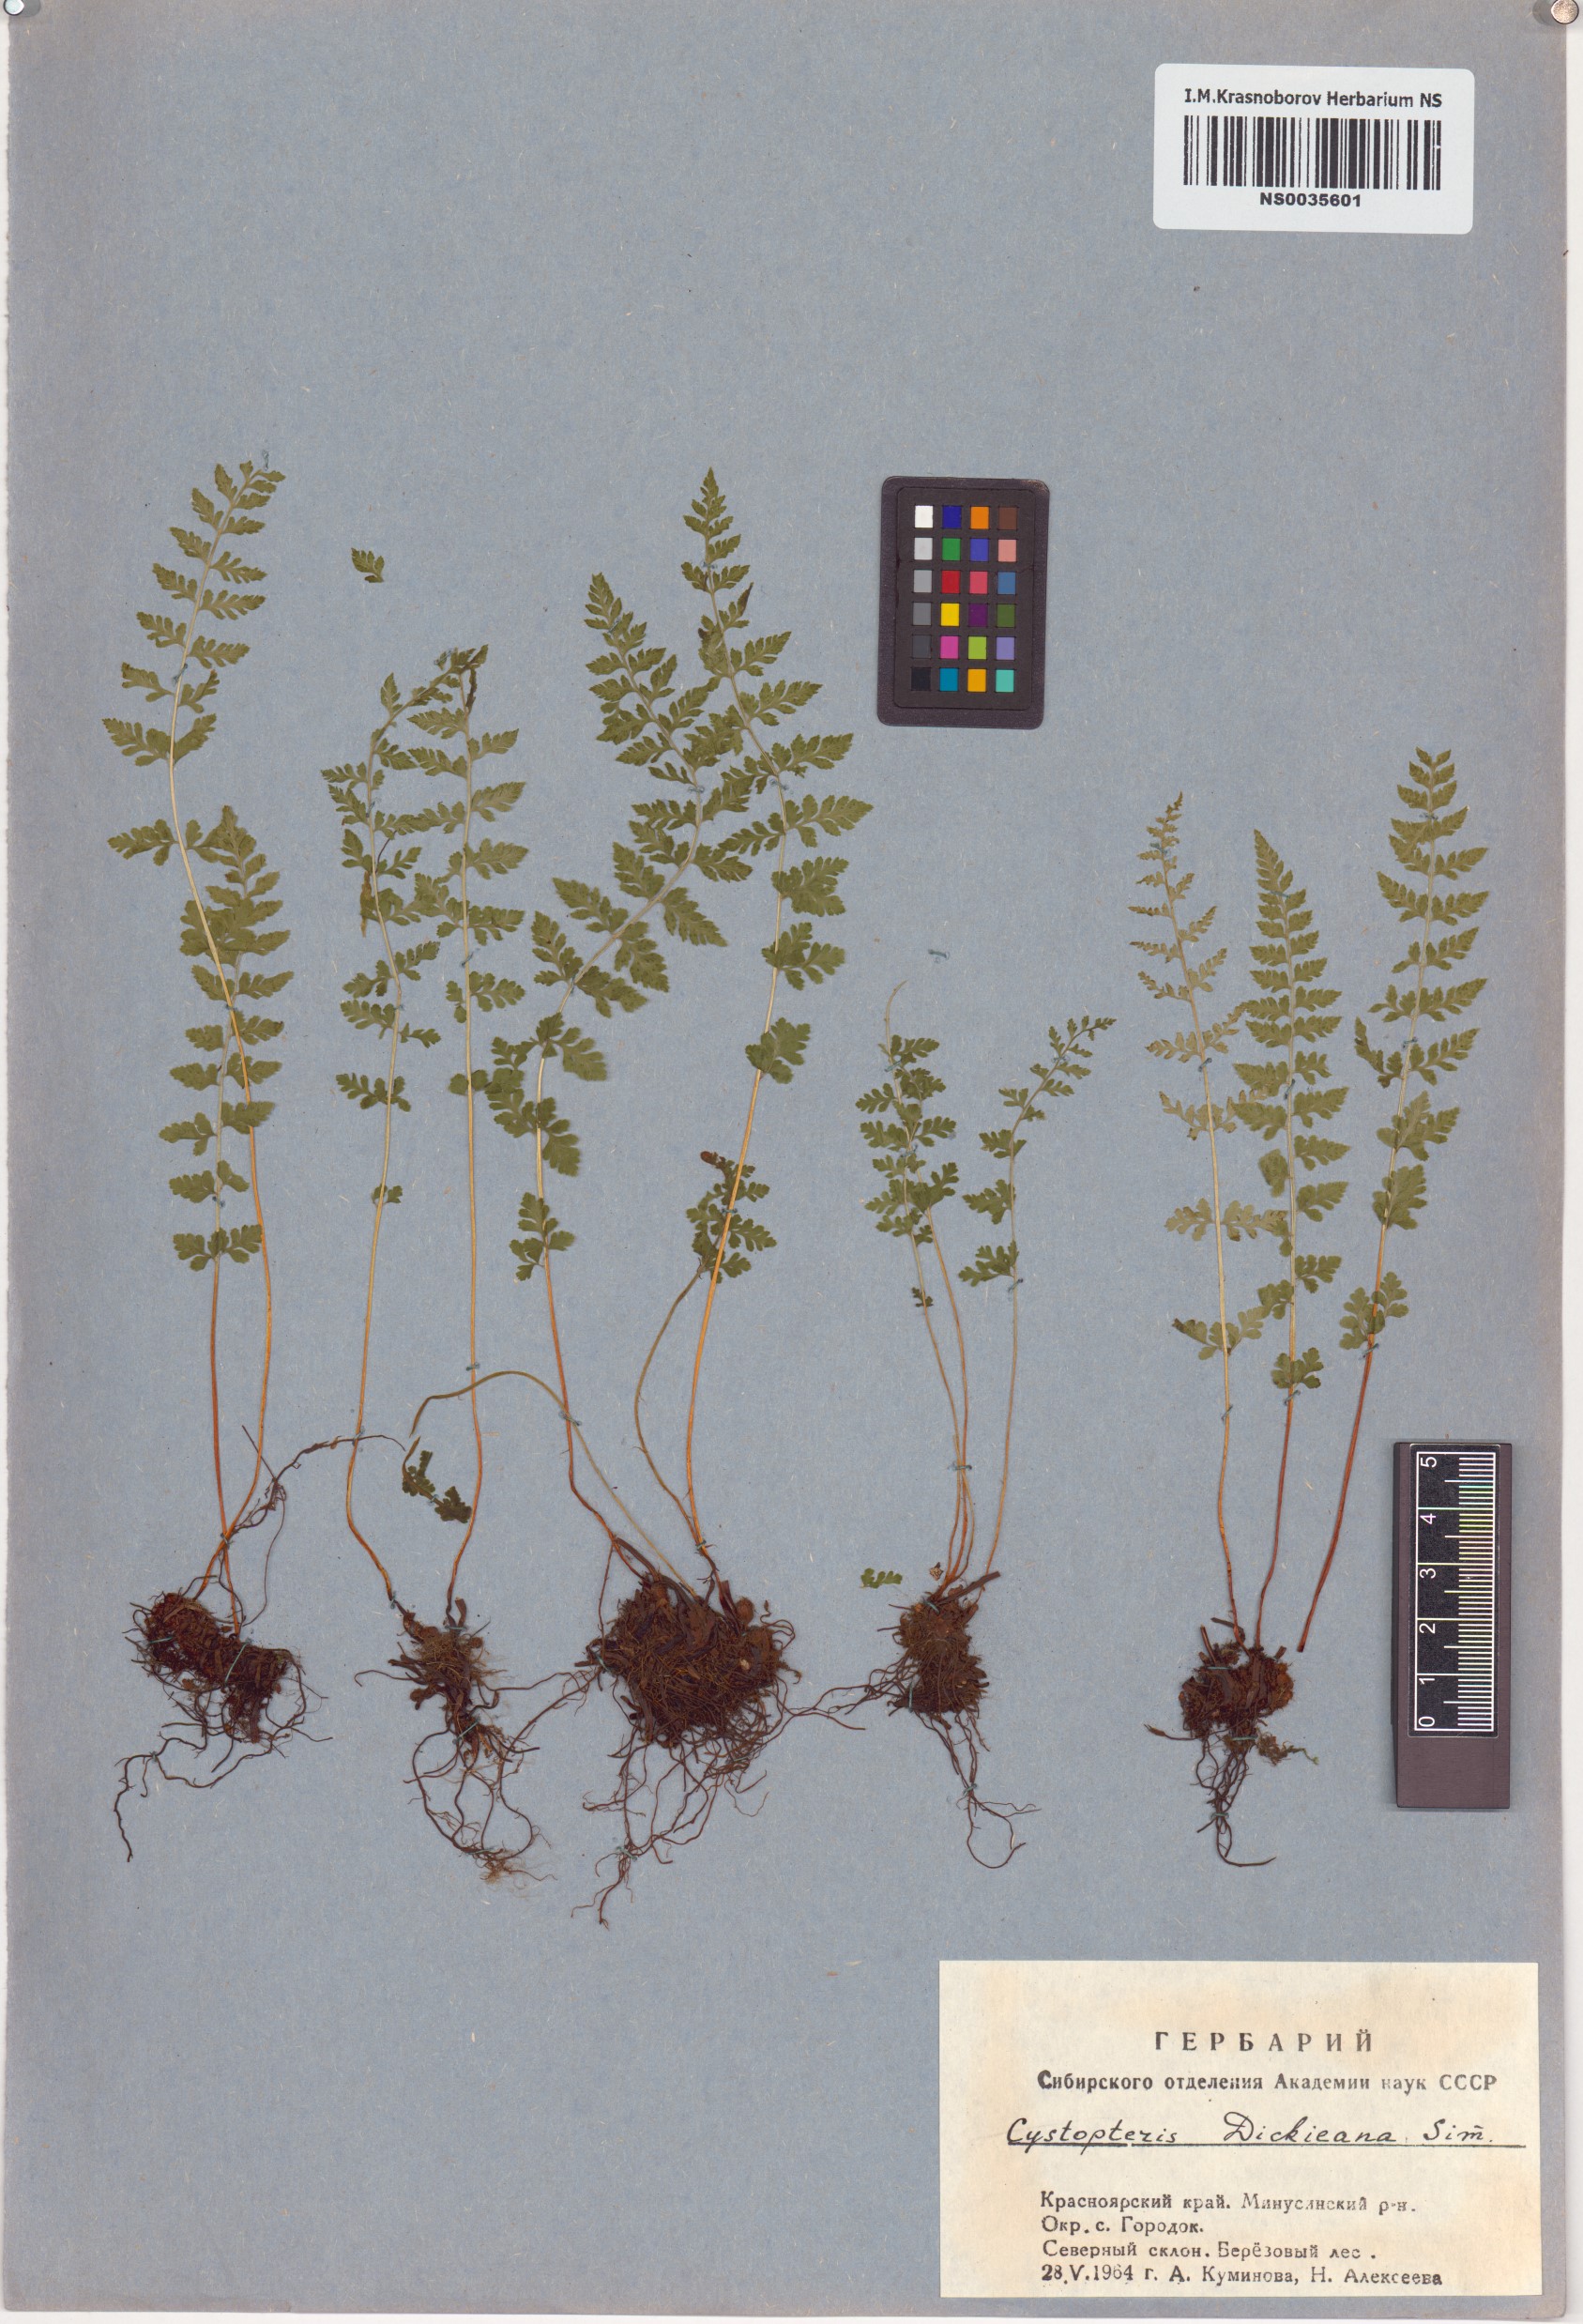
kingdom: Plantae
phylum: Tracheophyta
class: Polypodiopsida
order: Polypodiales
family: Cystopteridaceae
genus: Cystopteris
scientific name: Cystopteris dickieana
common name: Dickie's bladder-fern
